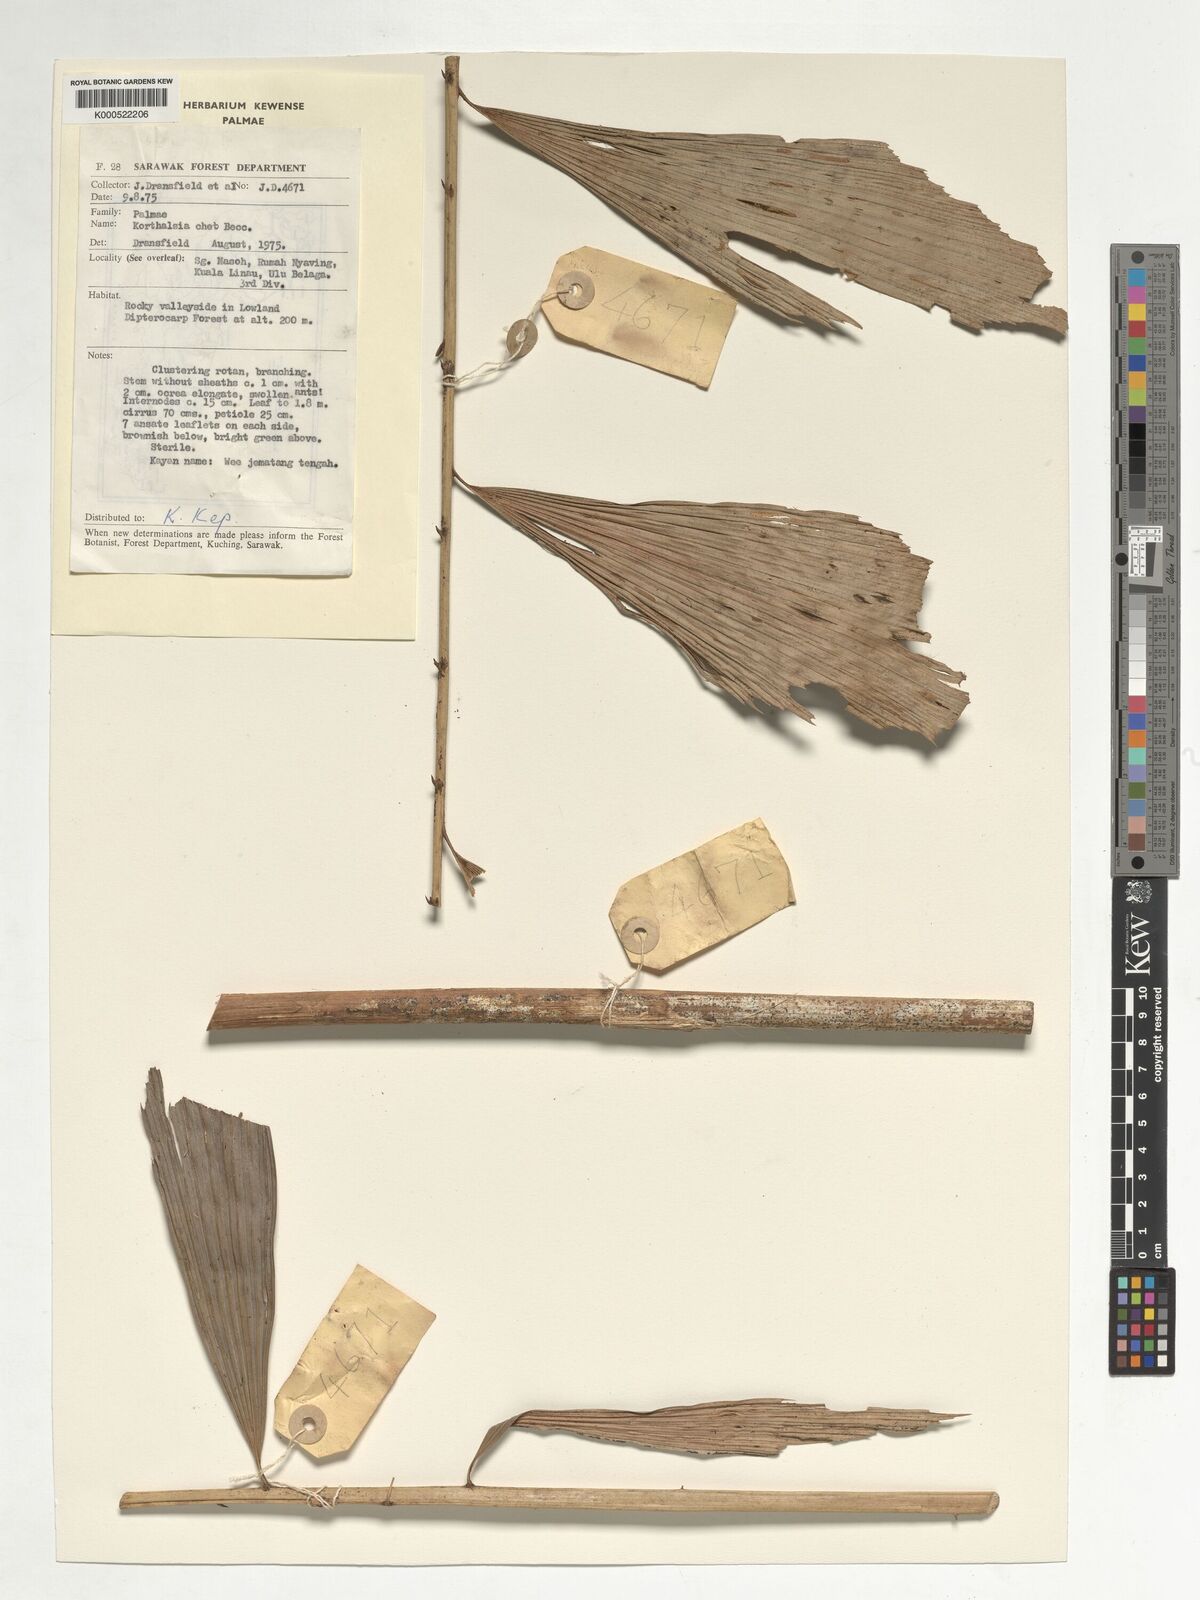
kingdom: Plantae
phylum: Tracheophyta
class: Liliopsida
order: Arecales
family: Arecaceae
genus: Korthalsia
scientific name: Korthalsia cheb
